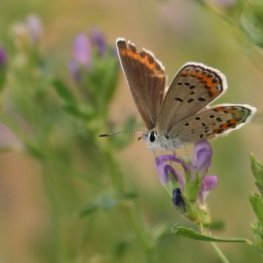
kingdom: Animalia
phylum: Arthropoda
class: Insecta
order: Lepidoptera
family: Lycaenidae
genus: Lycaeides
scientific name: Lycaeides melissa
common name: Melissa Blue
